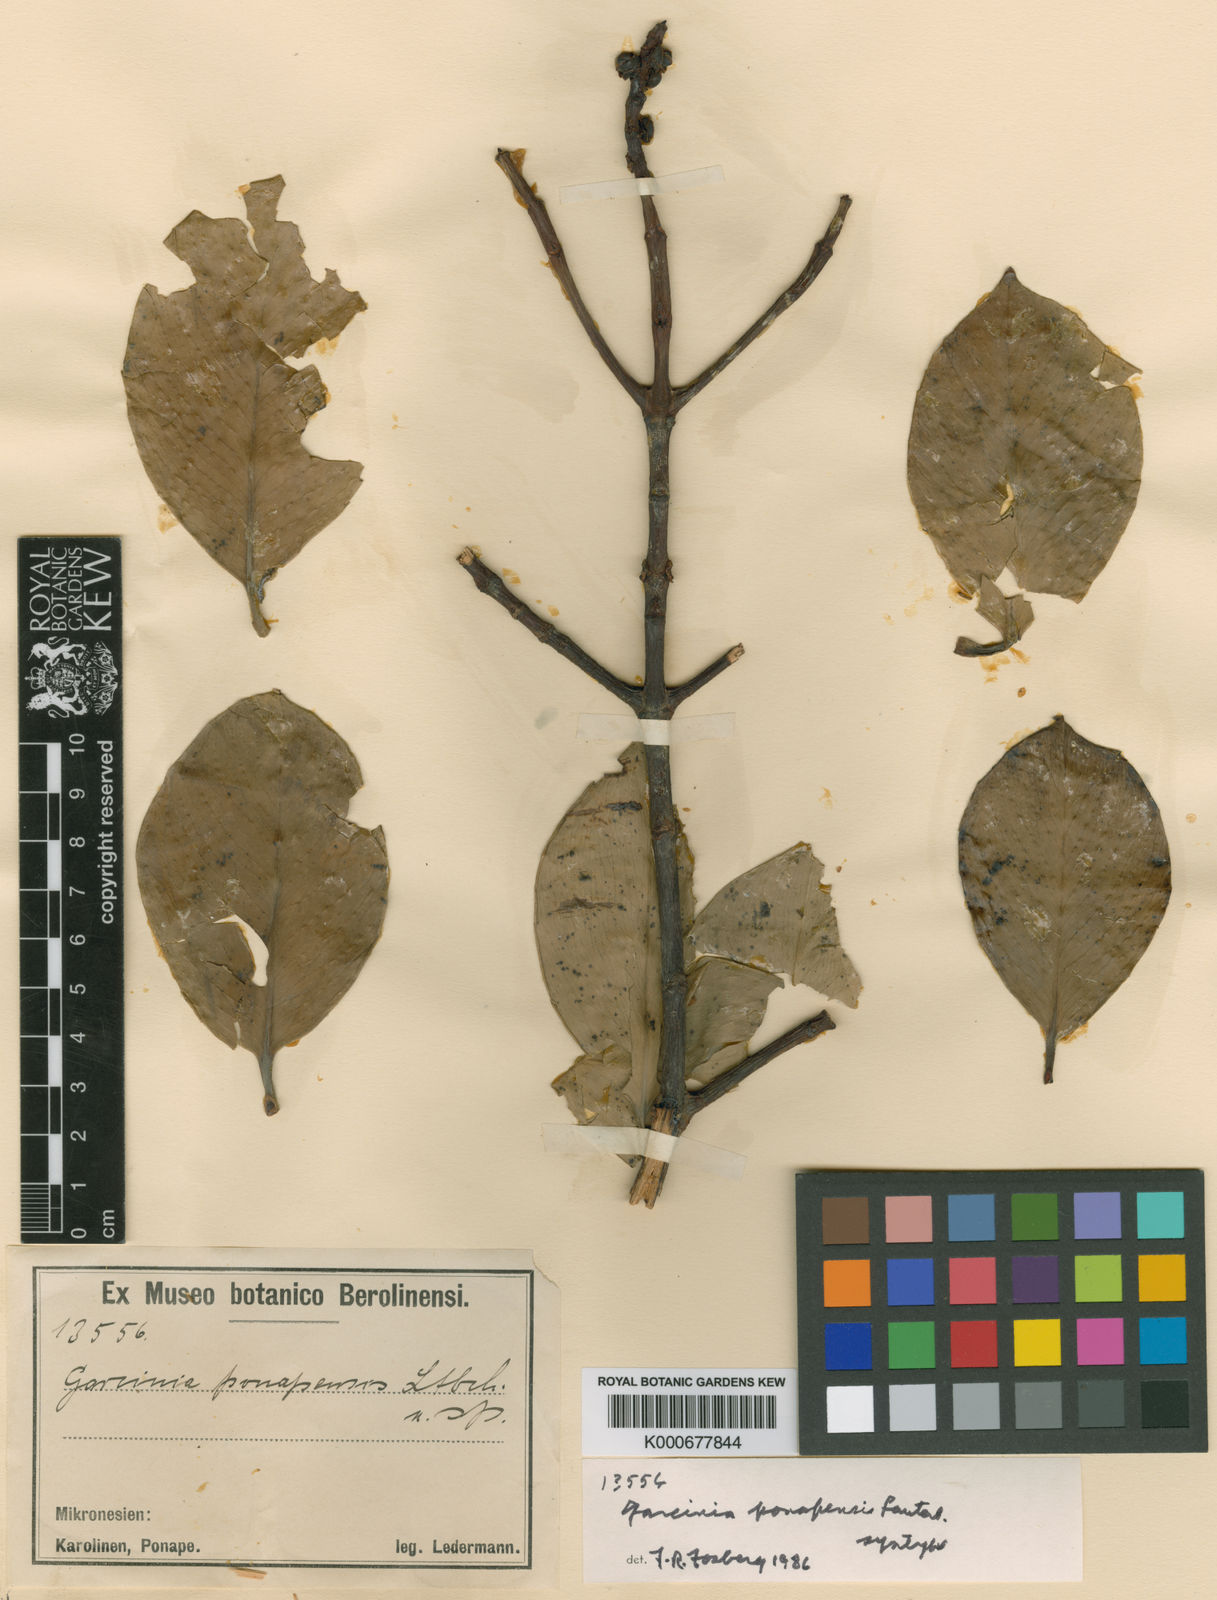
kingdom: Plantae
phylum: Tracheophyta
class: Magnoliopsida
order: Malpighiales
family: Clusiaceae
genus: Garcinia
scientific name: Garcinia ponapensis
